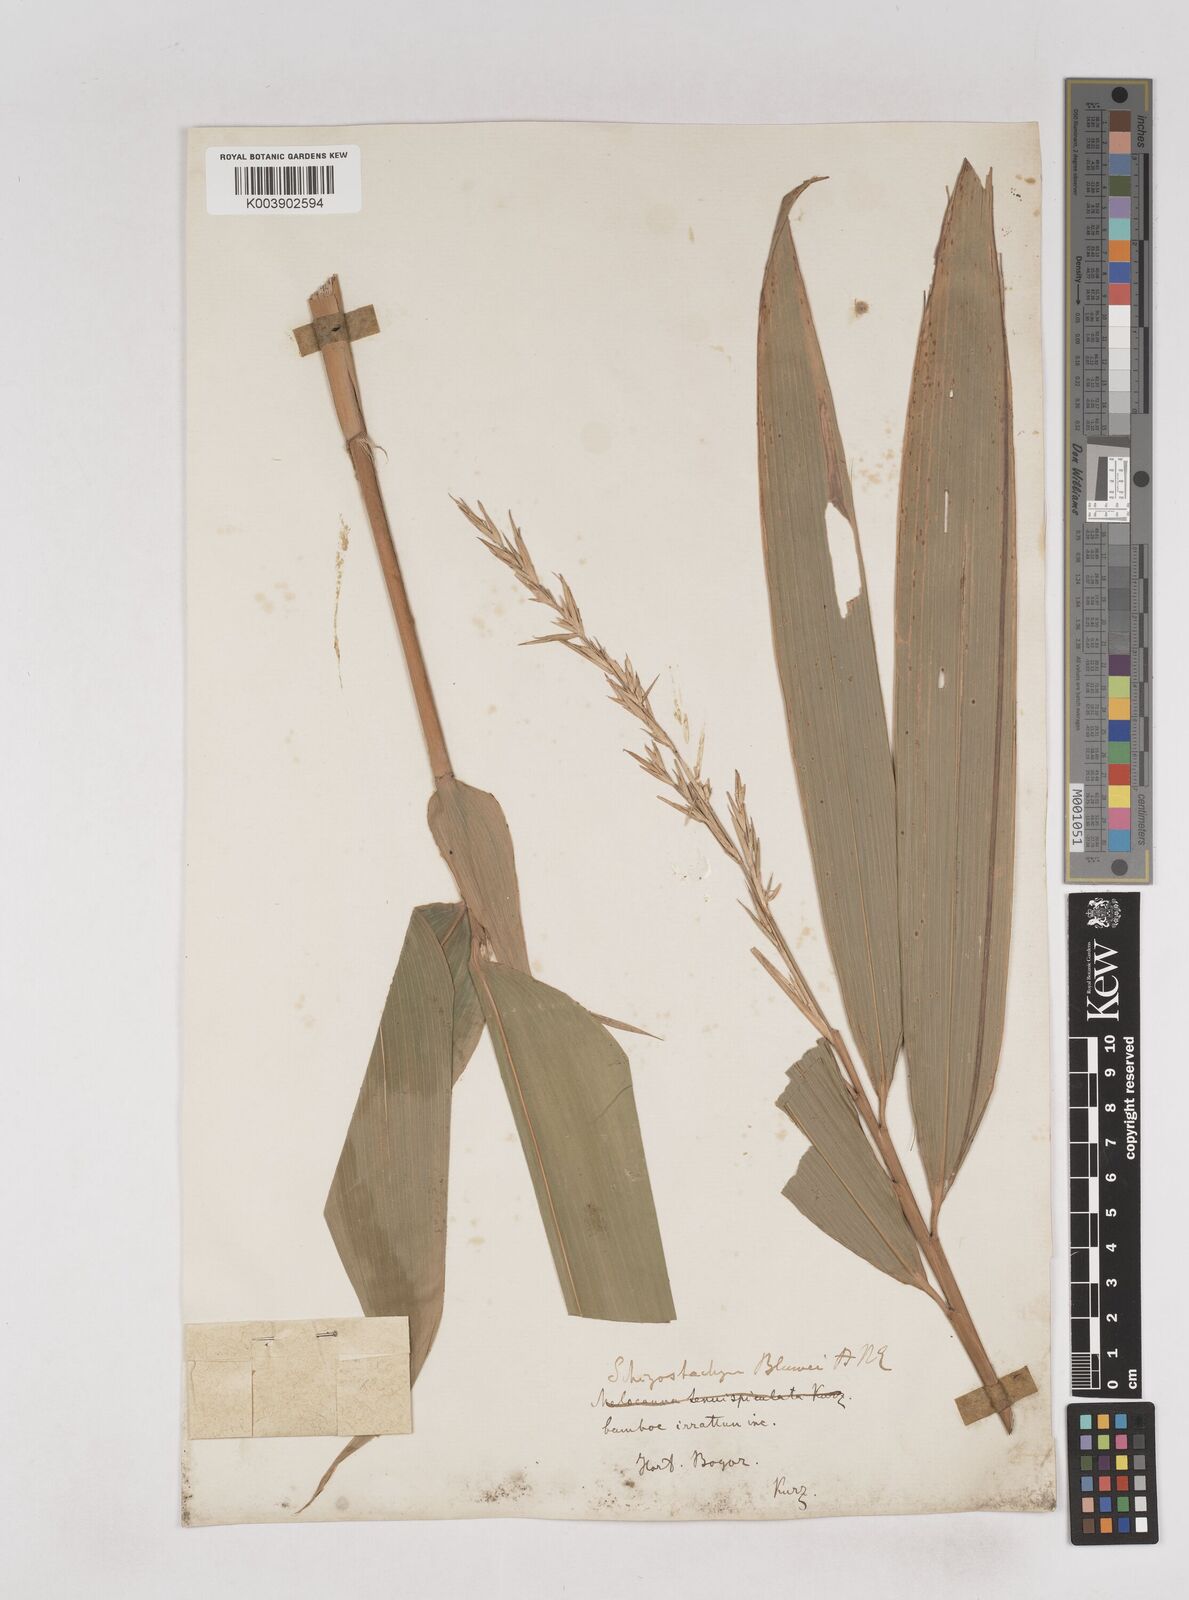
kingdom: Plantae
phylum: Tracheophyta
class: Liliopsida
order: Poales
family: Poaceae
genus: Schizostachyum
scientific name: Schizostachyum blumei
